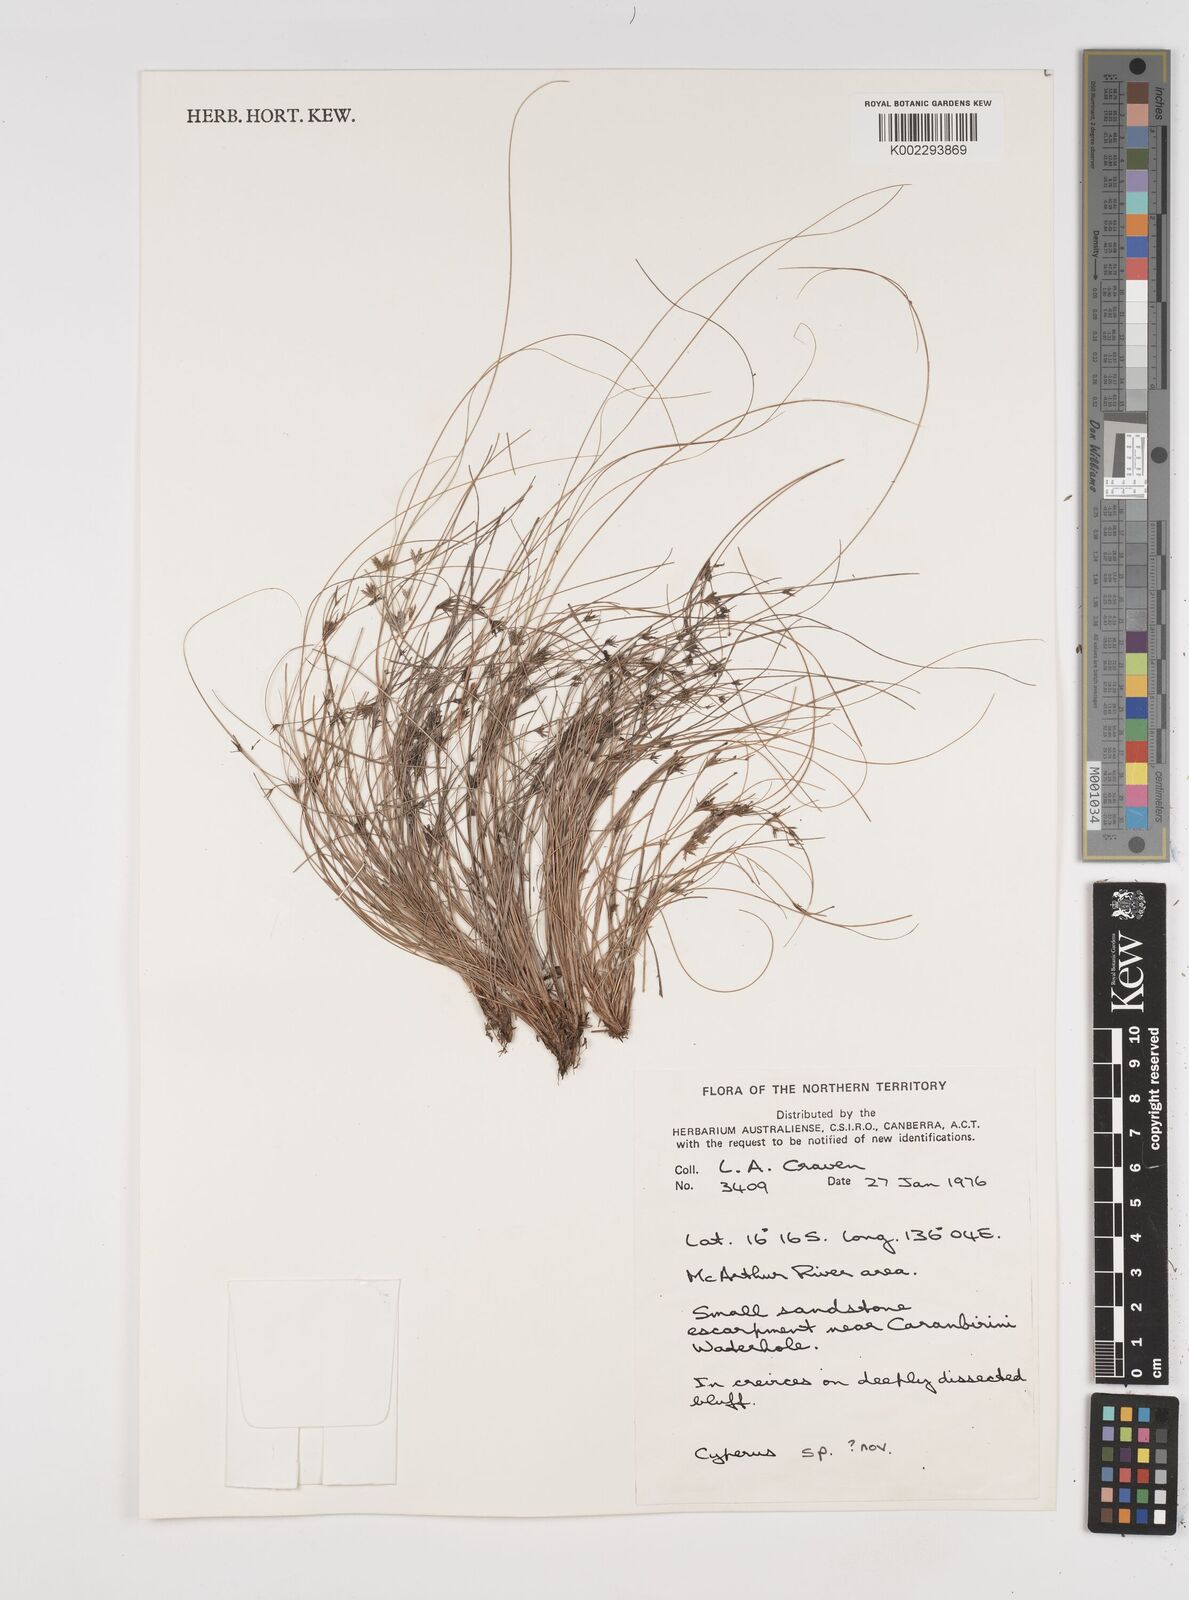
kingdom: Plantae
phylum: Tracheophyta
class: Liliopsida
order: Poales
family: Cyperaceae
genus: Cyperus
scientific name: Cyperus
